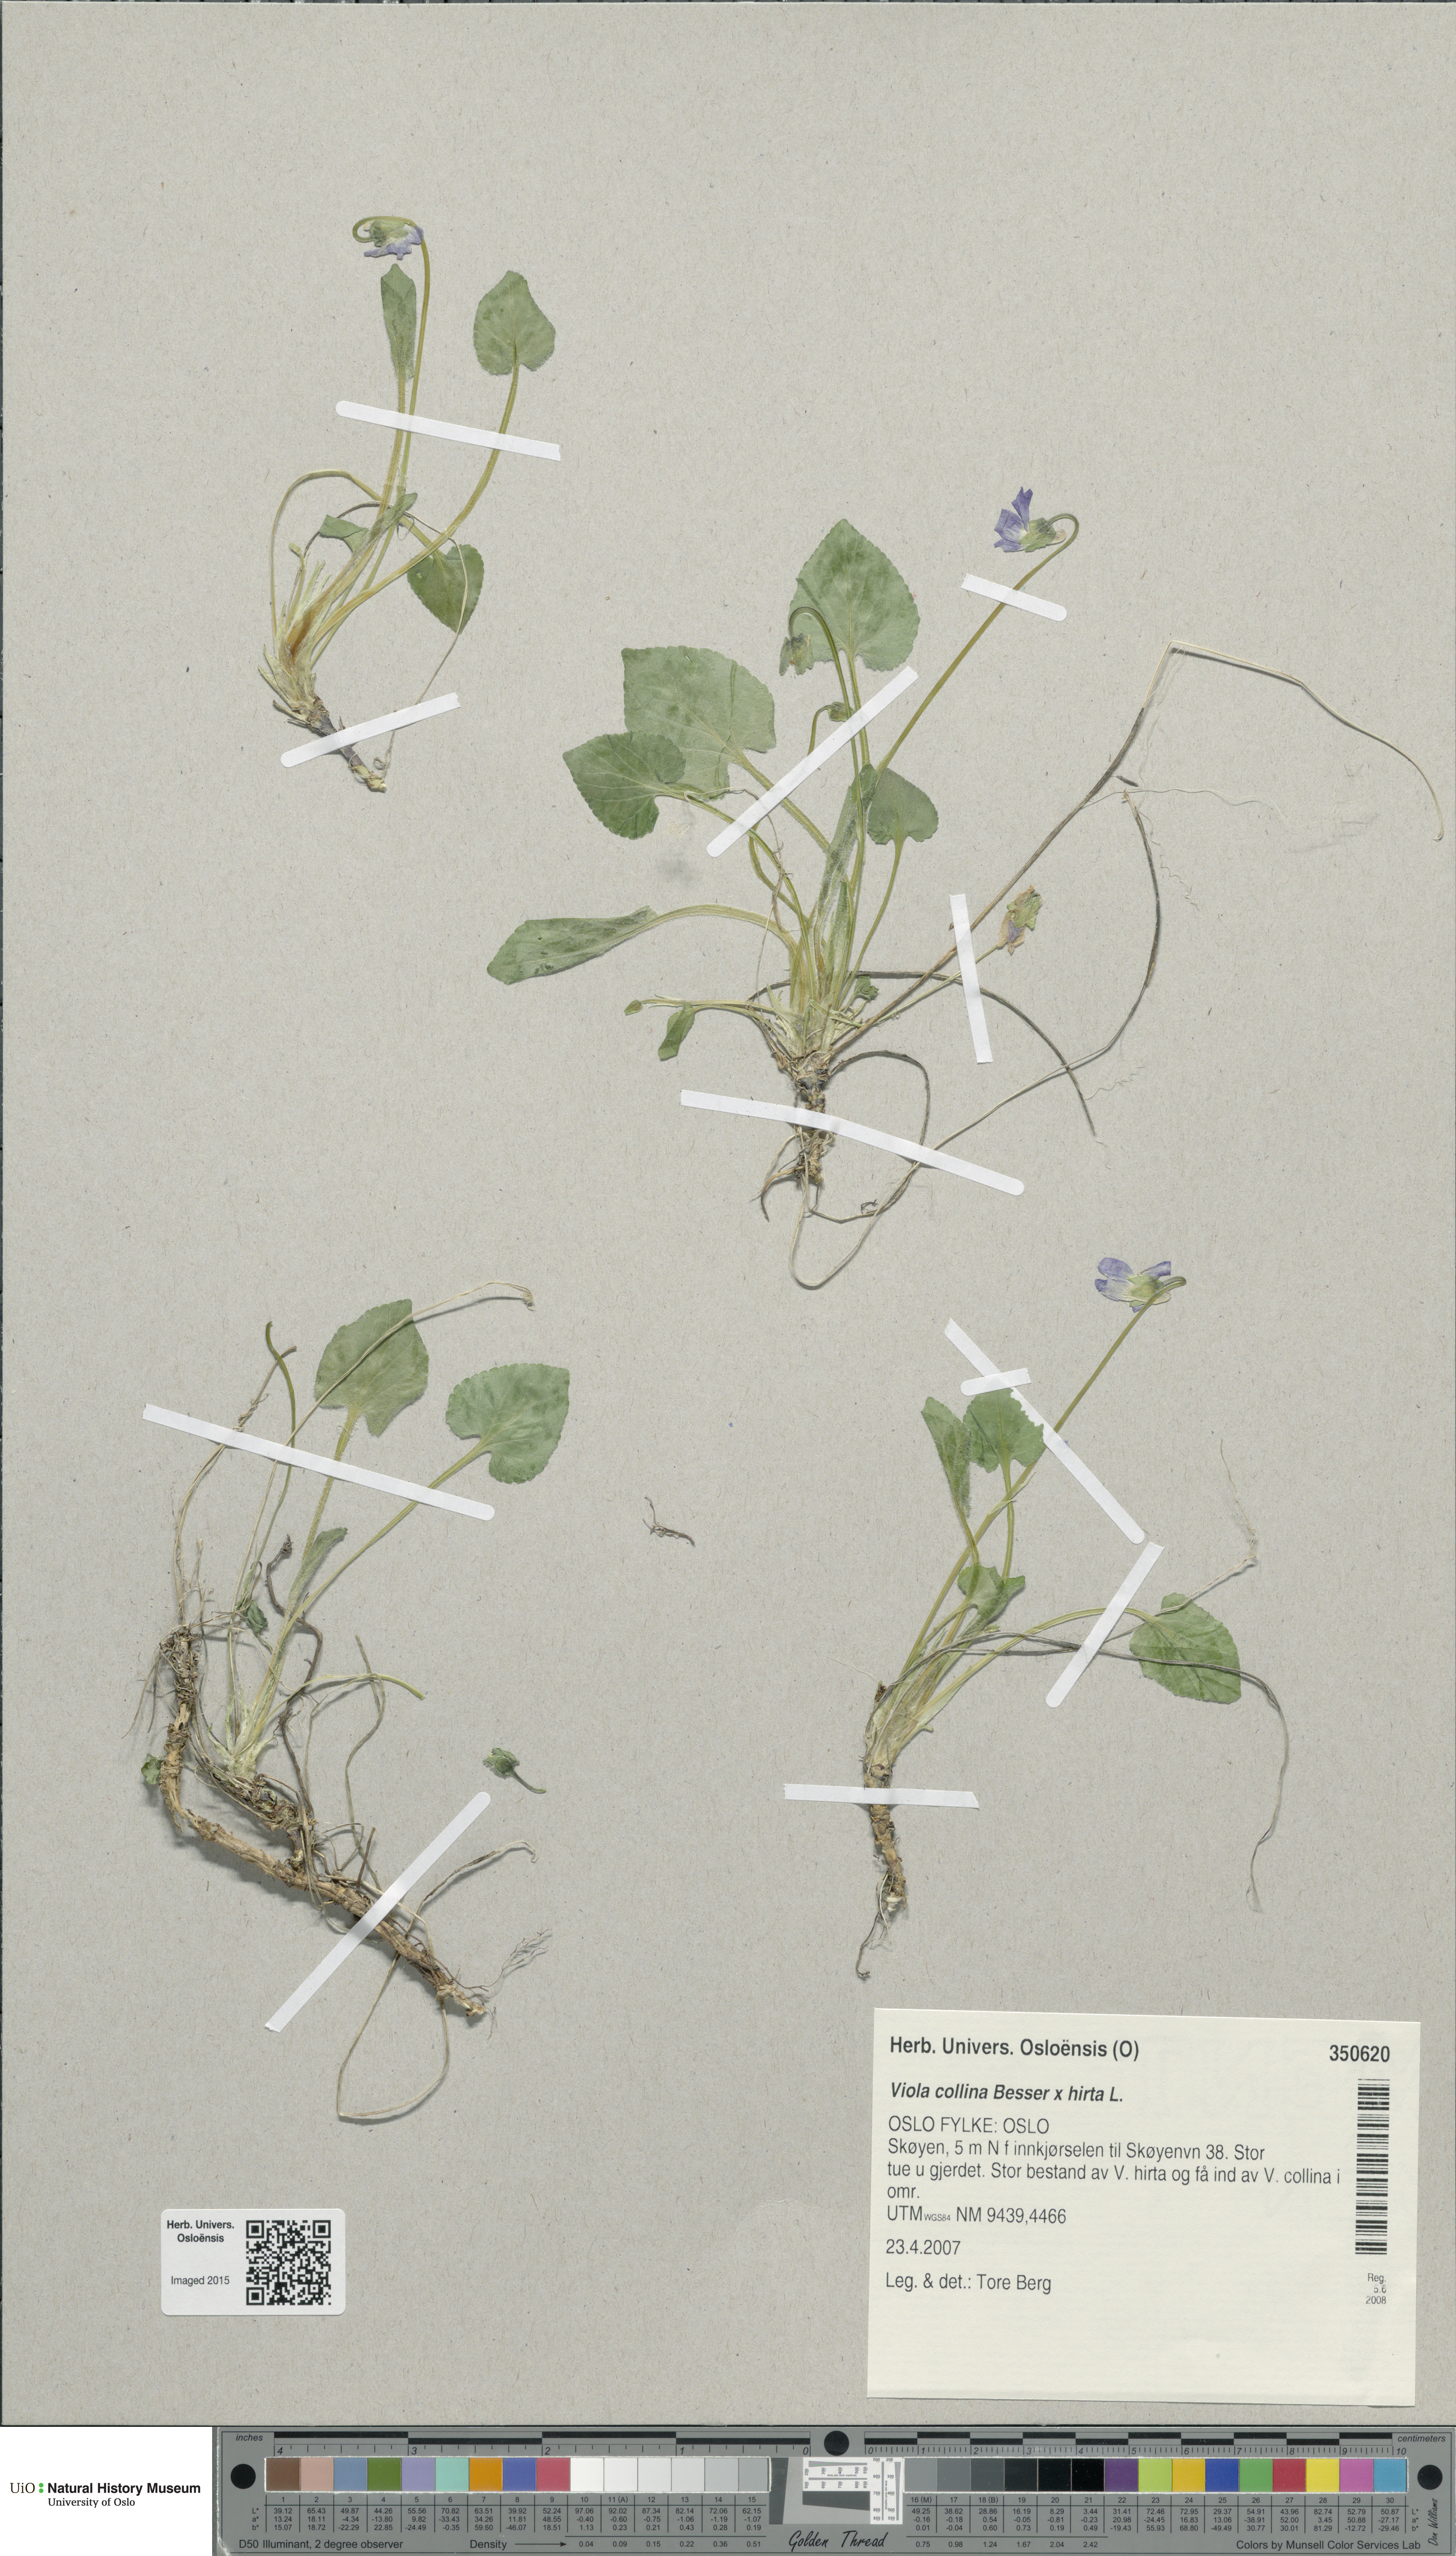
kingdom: Plantae
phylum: Tracheophyta
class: Magnoliopsida
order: Malpighiales
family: Violaceae
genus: Viola
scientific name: Viola
